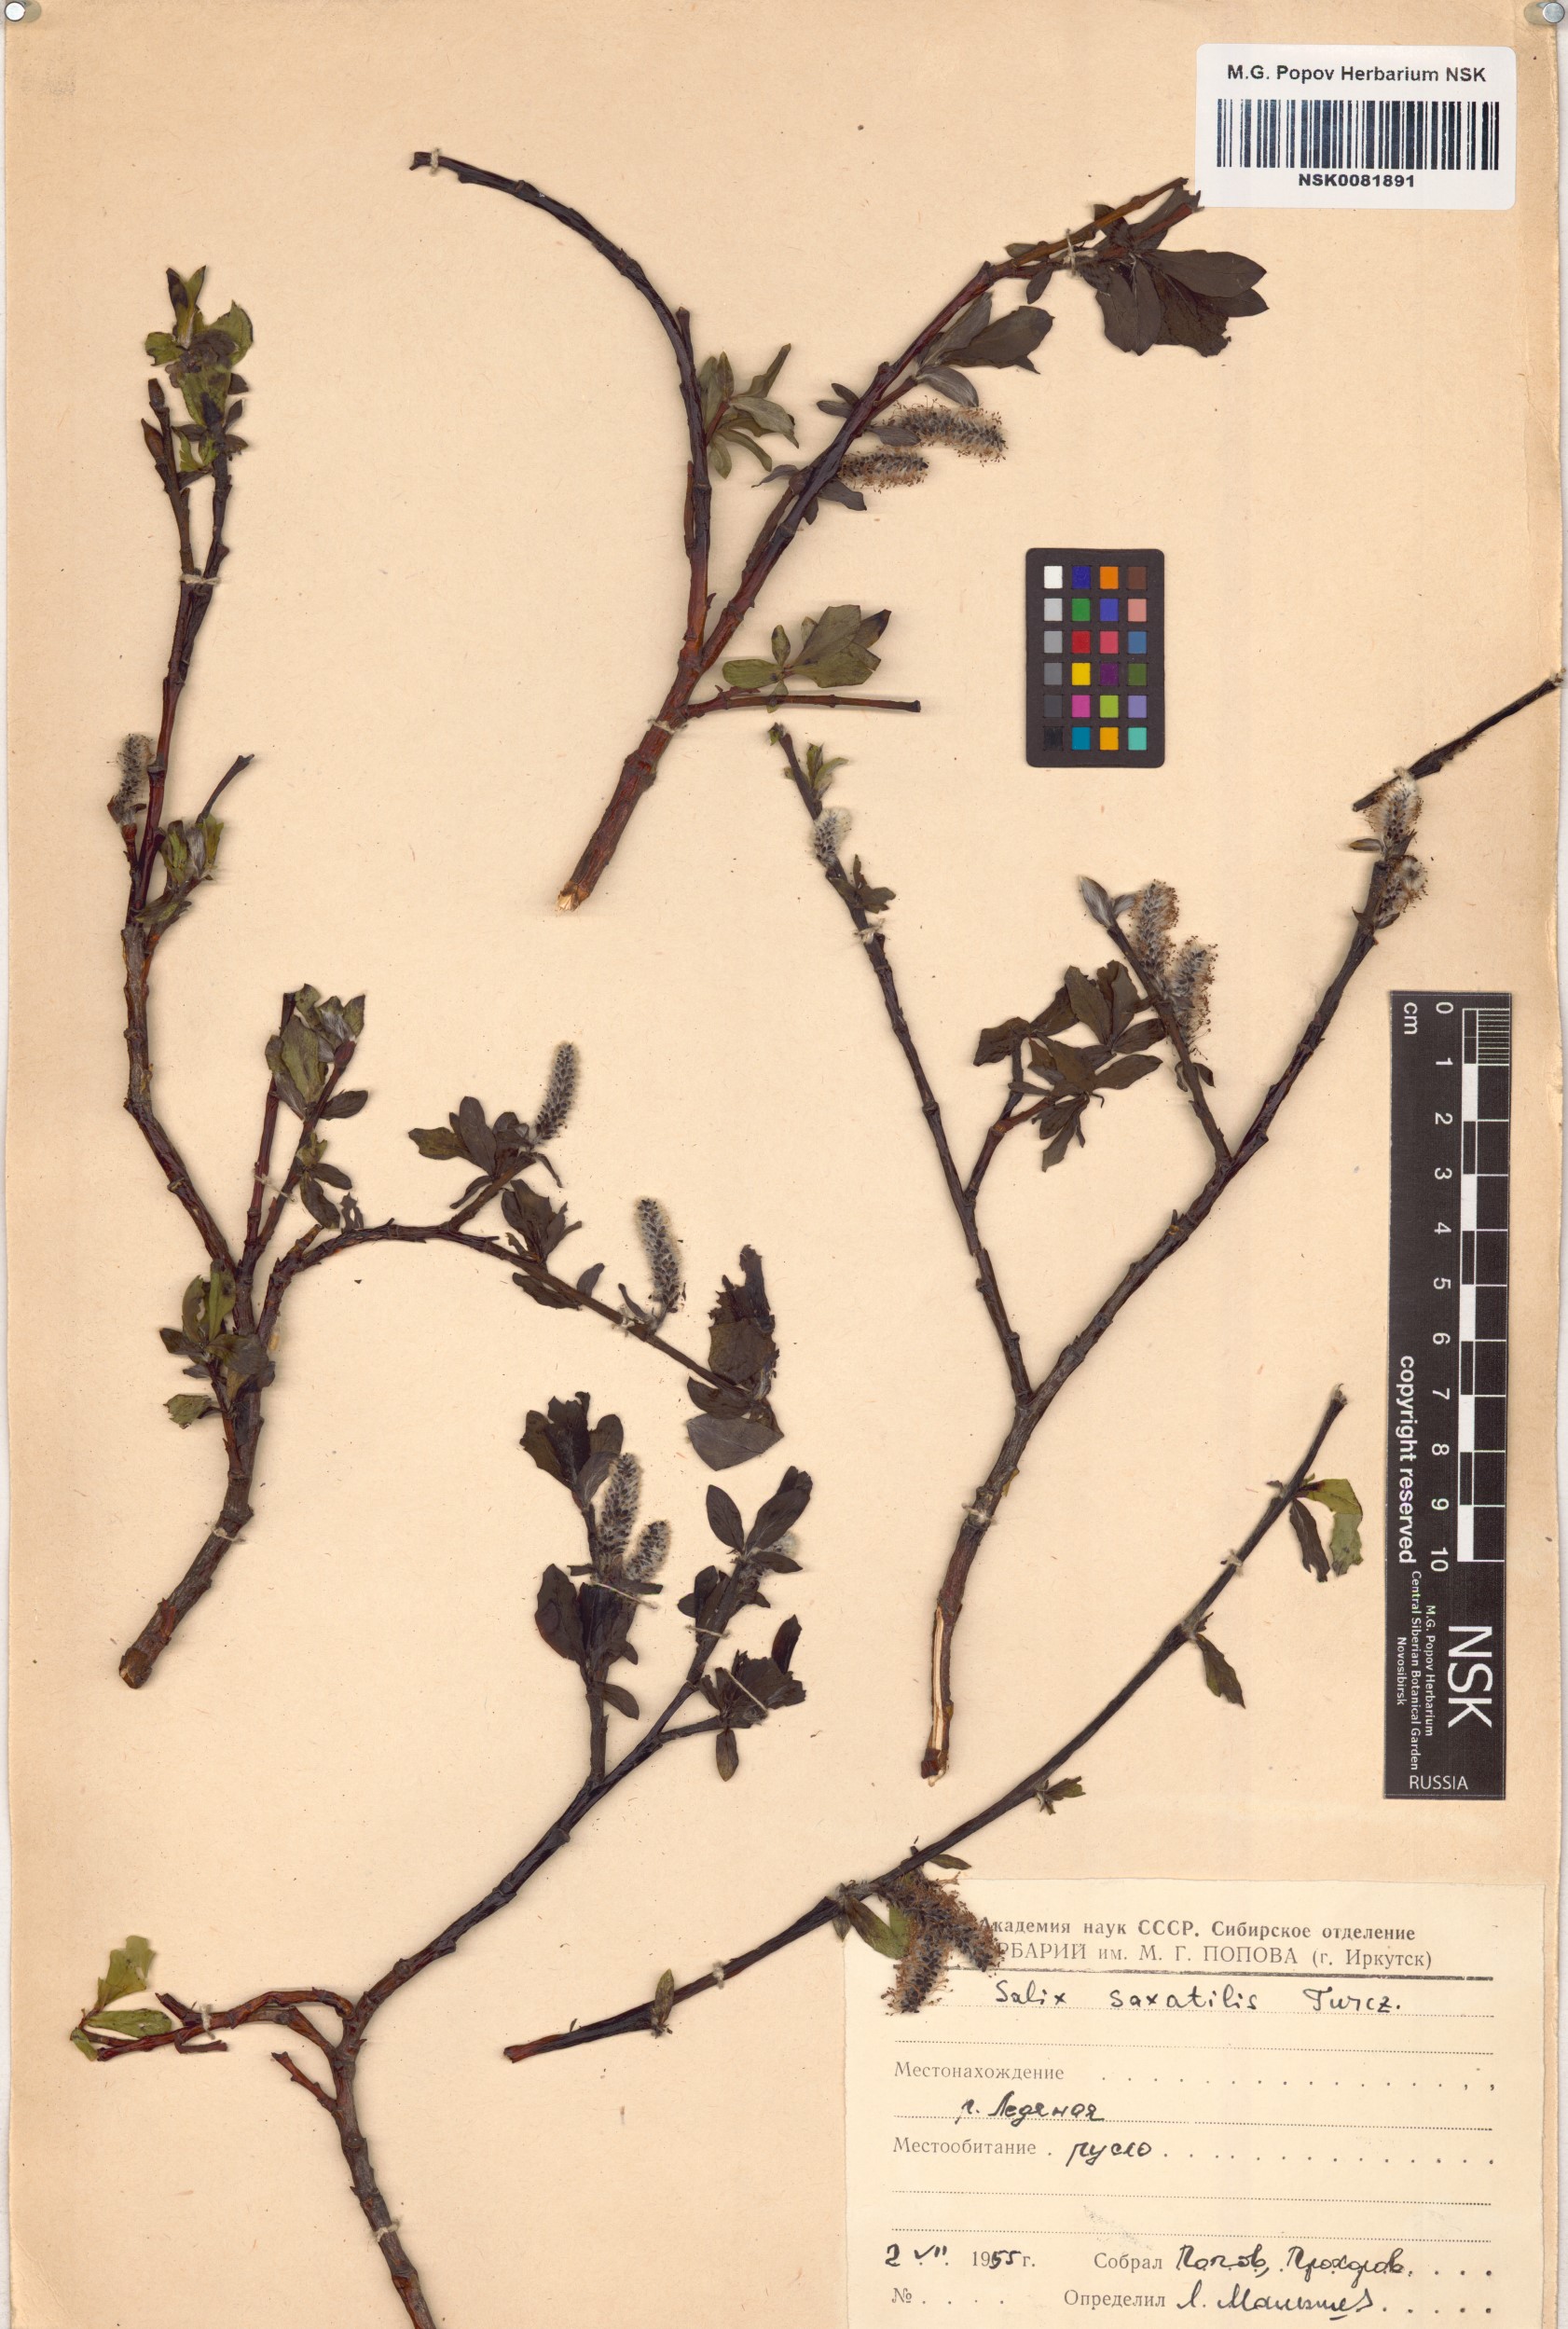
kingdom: Plantae
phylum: Tracheophyta
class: Magnoliopsida
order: Malpighiales
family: Salicaceae
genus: Salix
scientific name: Salix saxatilis
